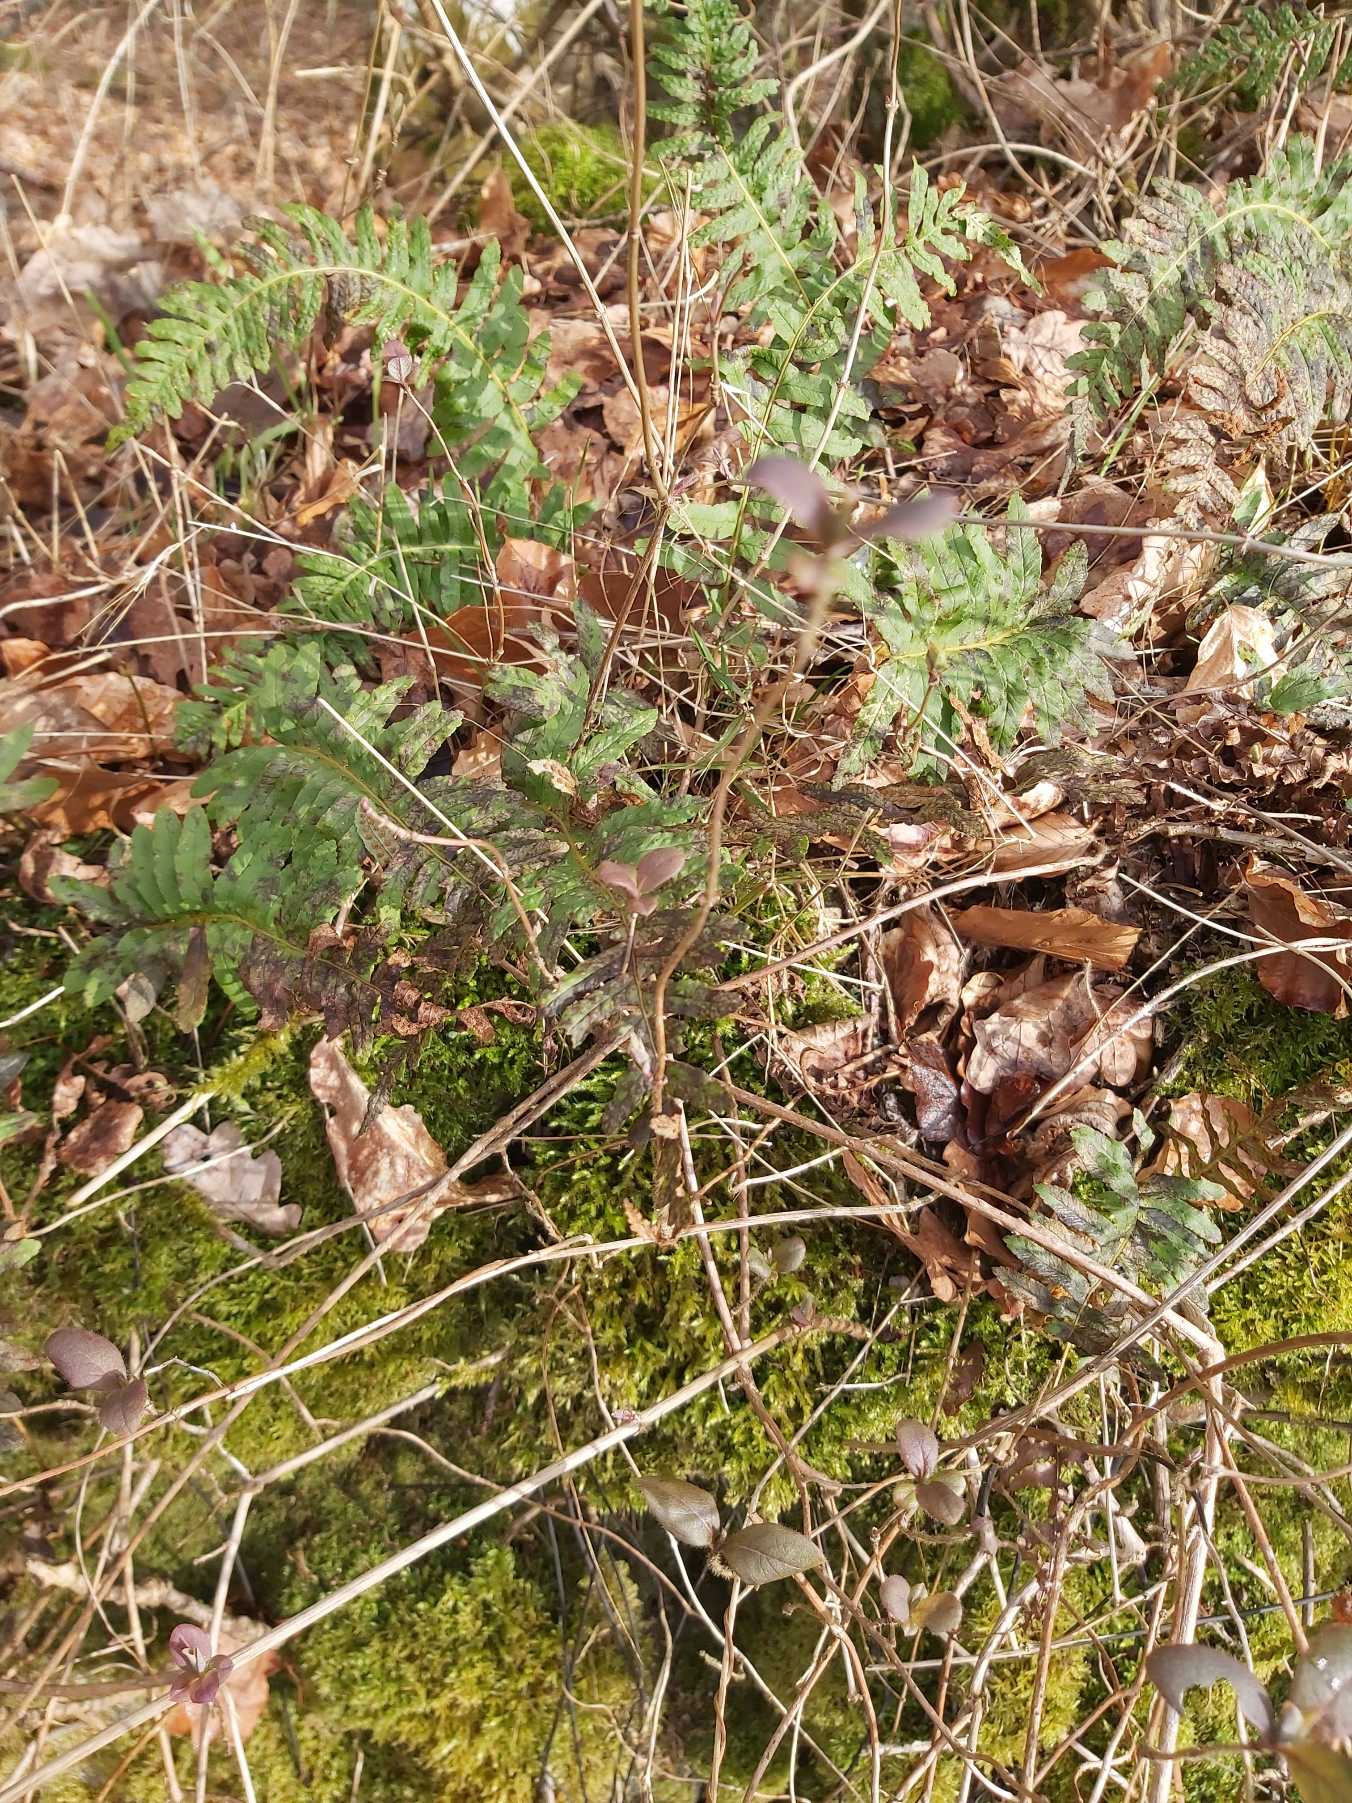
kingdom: Plantae
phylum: Tracheophyta
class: Polypodiopsida
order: Polypodiales
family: Polypodiaceae
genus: Polypodium
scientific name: Polypodium vulgare
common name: Almindelig engelsød
